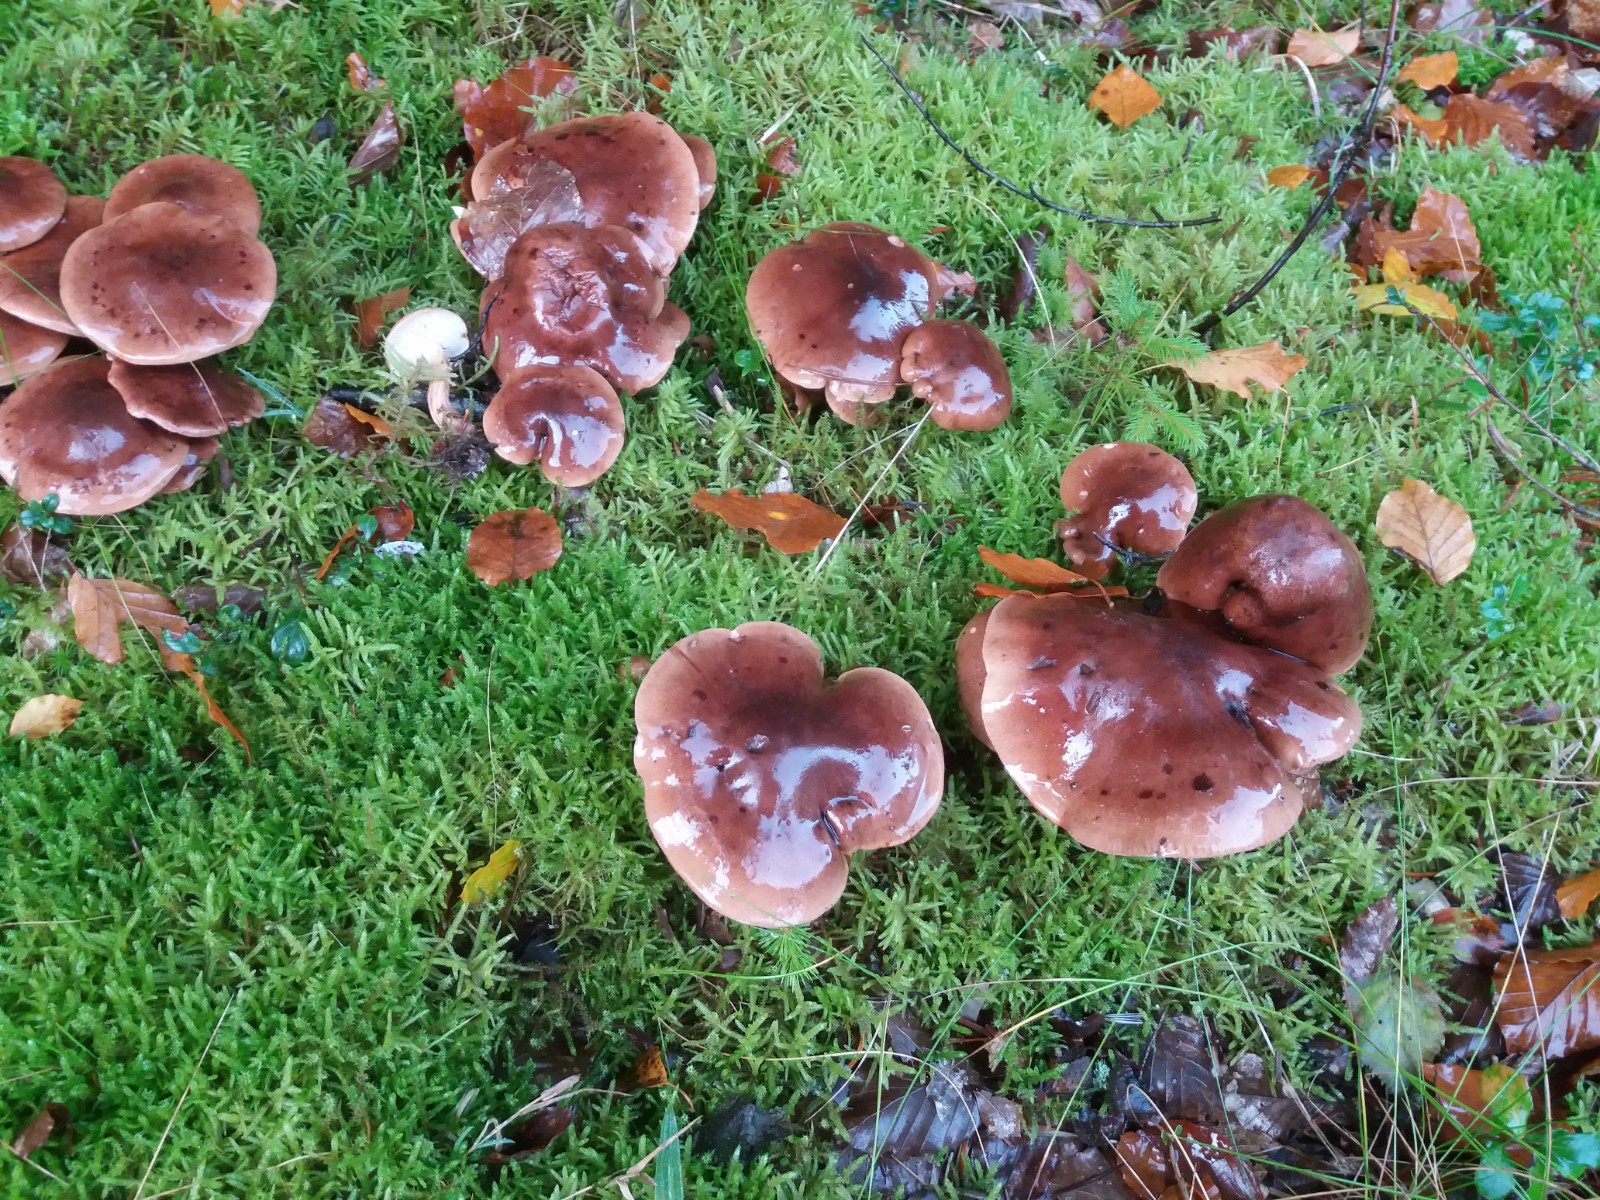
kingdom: Fungi
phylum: Basidiomycota
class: Agaricomycetes
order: Agaricales
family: Tricholomataceae
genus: Tricholoma
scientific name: Tricholoma fulvum
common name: birke-ridderhat
